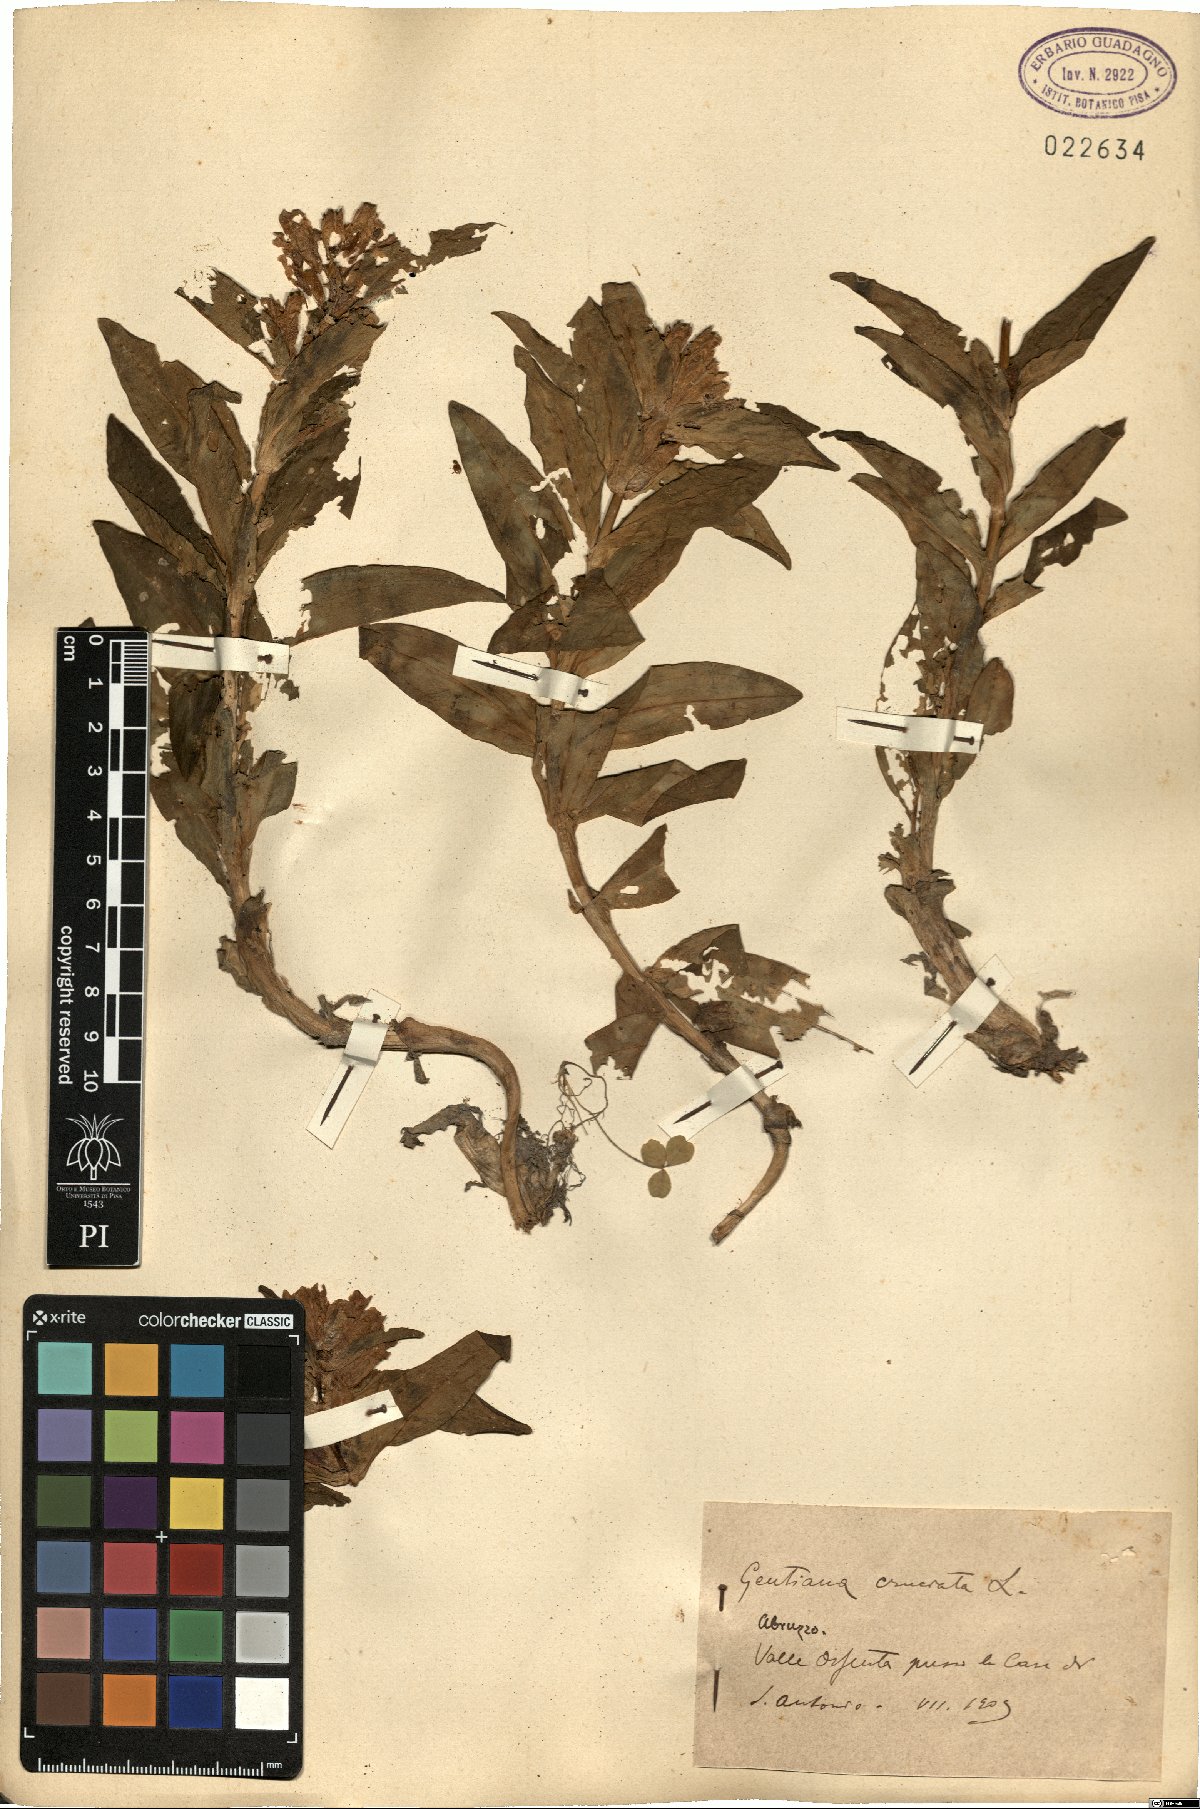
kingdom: Plantae
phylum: Tracheophyta
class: Magnoliopsida
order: Gentianales
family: Gentianaceae
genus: Gentiana
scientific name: Gentiana cruciata
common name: Cross gentian
